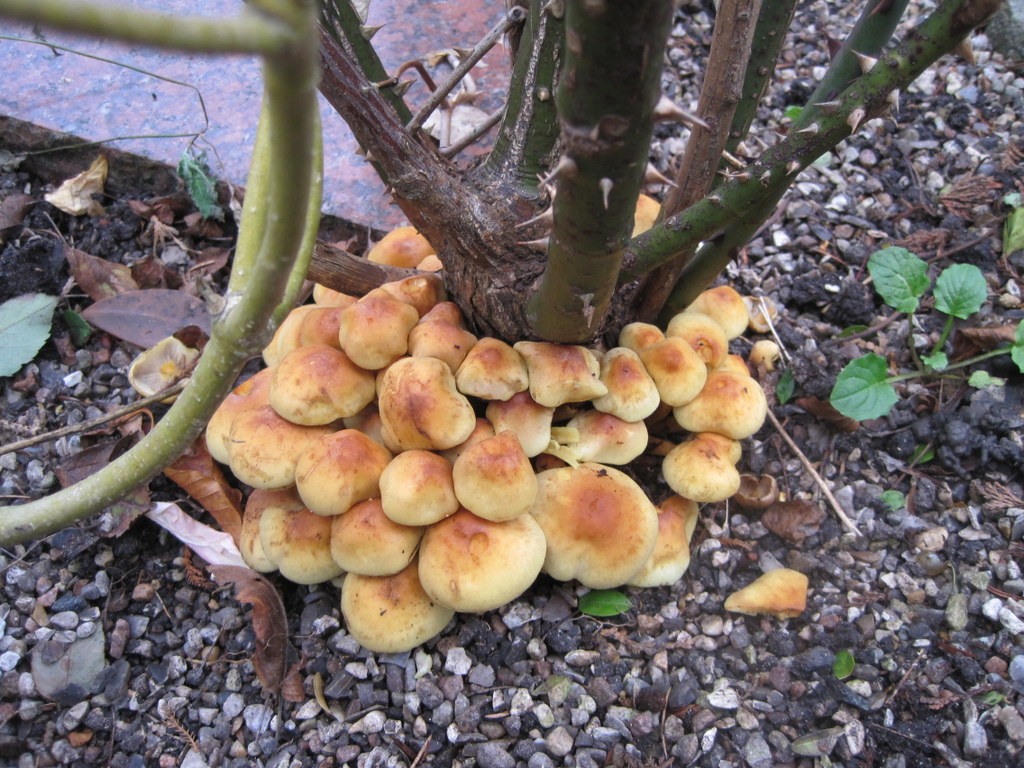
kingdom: Fungi
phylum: Basidiomycota
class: Agaricomycetes
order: Agaricales
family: Strophariaceae
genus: Hypholoma
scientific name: Hypholoma fasciculare
